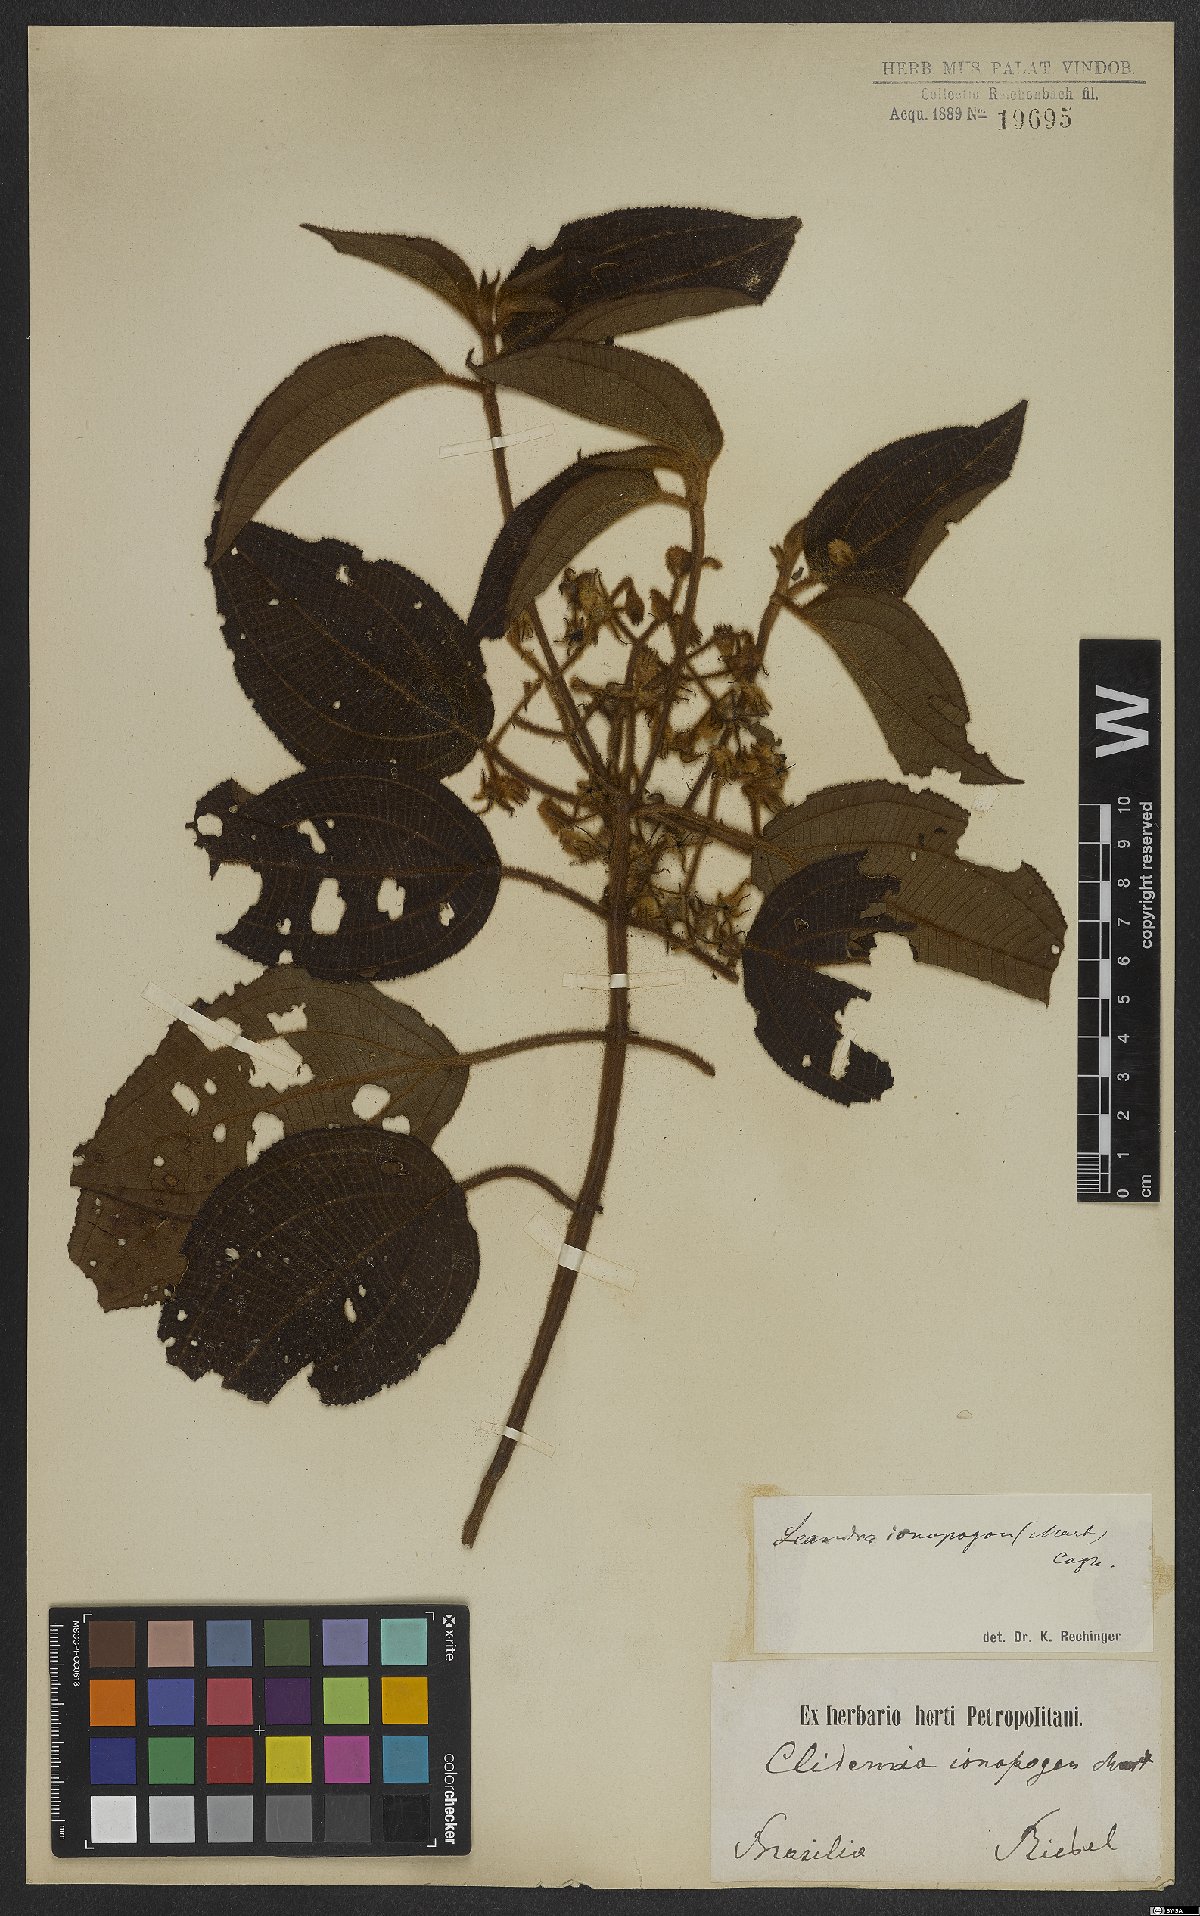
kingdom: Plantae
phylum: Tracheophyta
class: Magnoliopsida
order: Myrtales
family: Melastomataceae
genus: Miconia
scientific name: Miconia ionopogon
